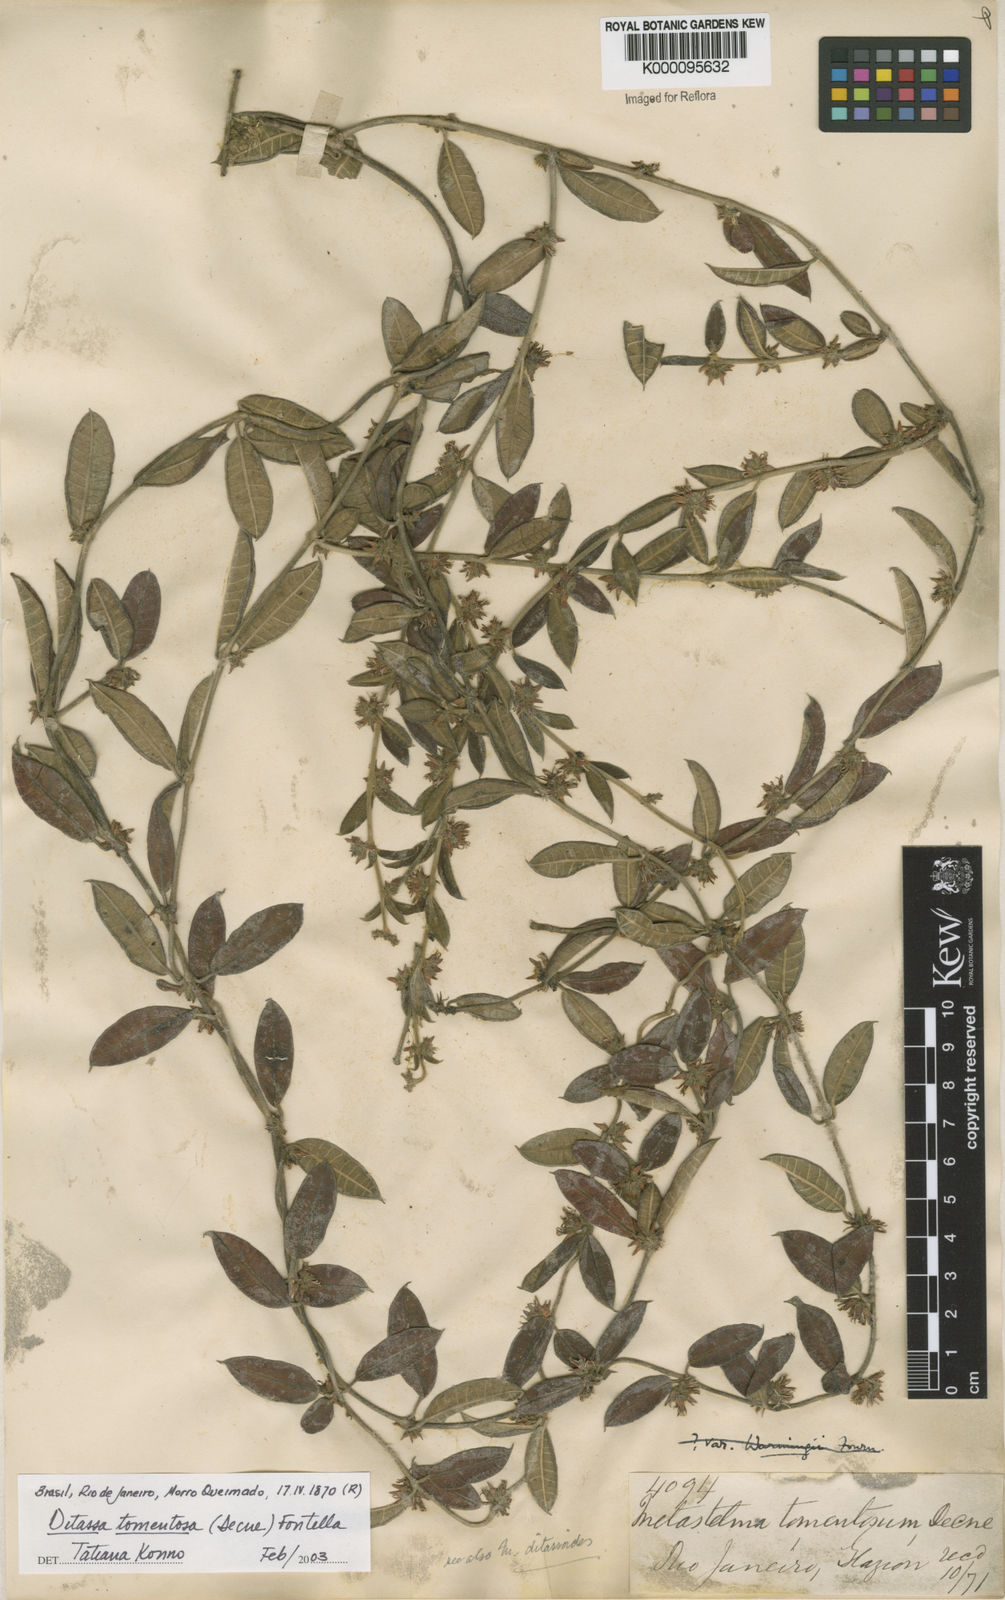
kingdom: Plantae
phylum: Tracheophyta
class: Magnoliopsida
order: Gentianales
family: Apocynaceae
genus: Ditassa
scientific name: Ditassa tomentosa
